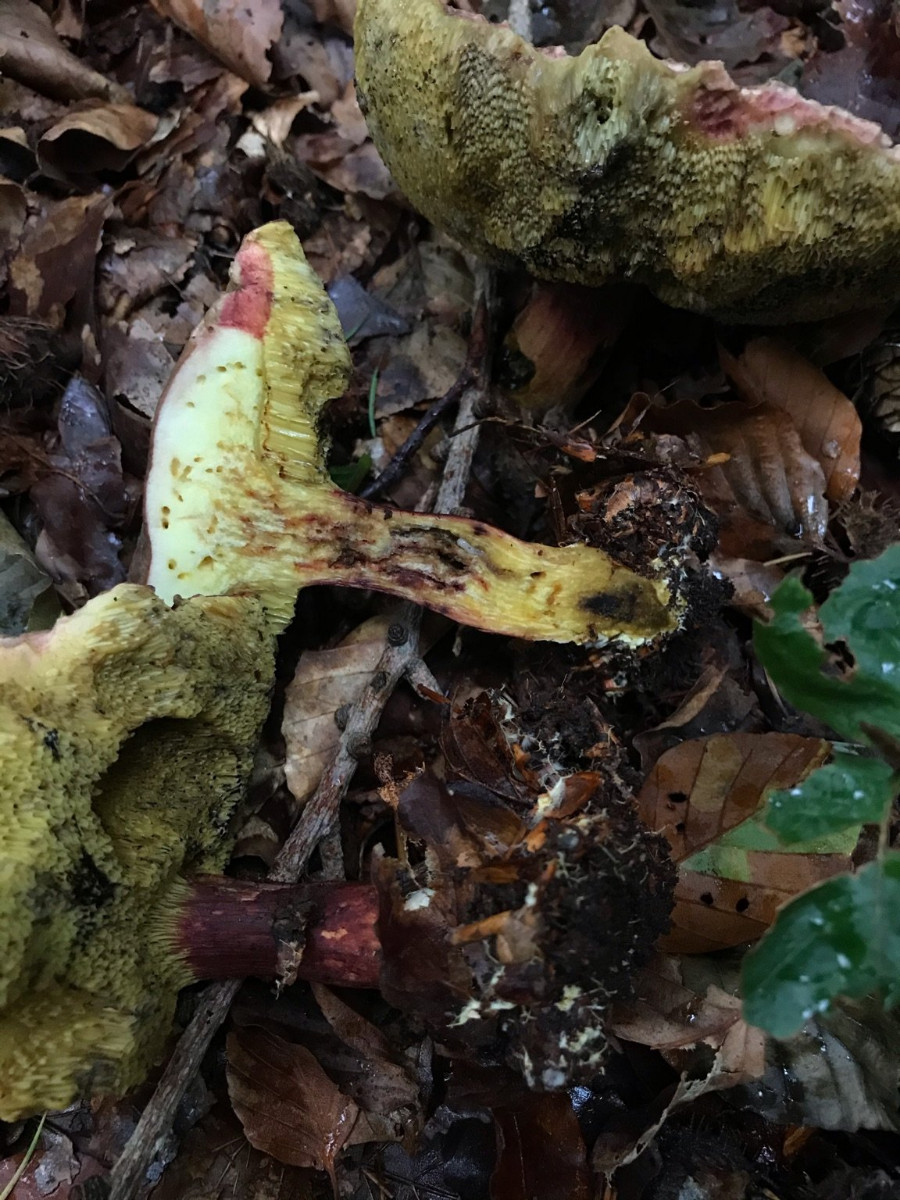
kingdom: Fungi
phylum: Basidiomycota
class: Agaricomycetes
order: Boletales
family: Boletaceae
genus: Xerocomellus
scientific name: Xerocomellus pruinatus
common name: dugget rørhat
